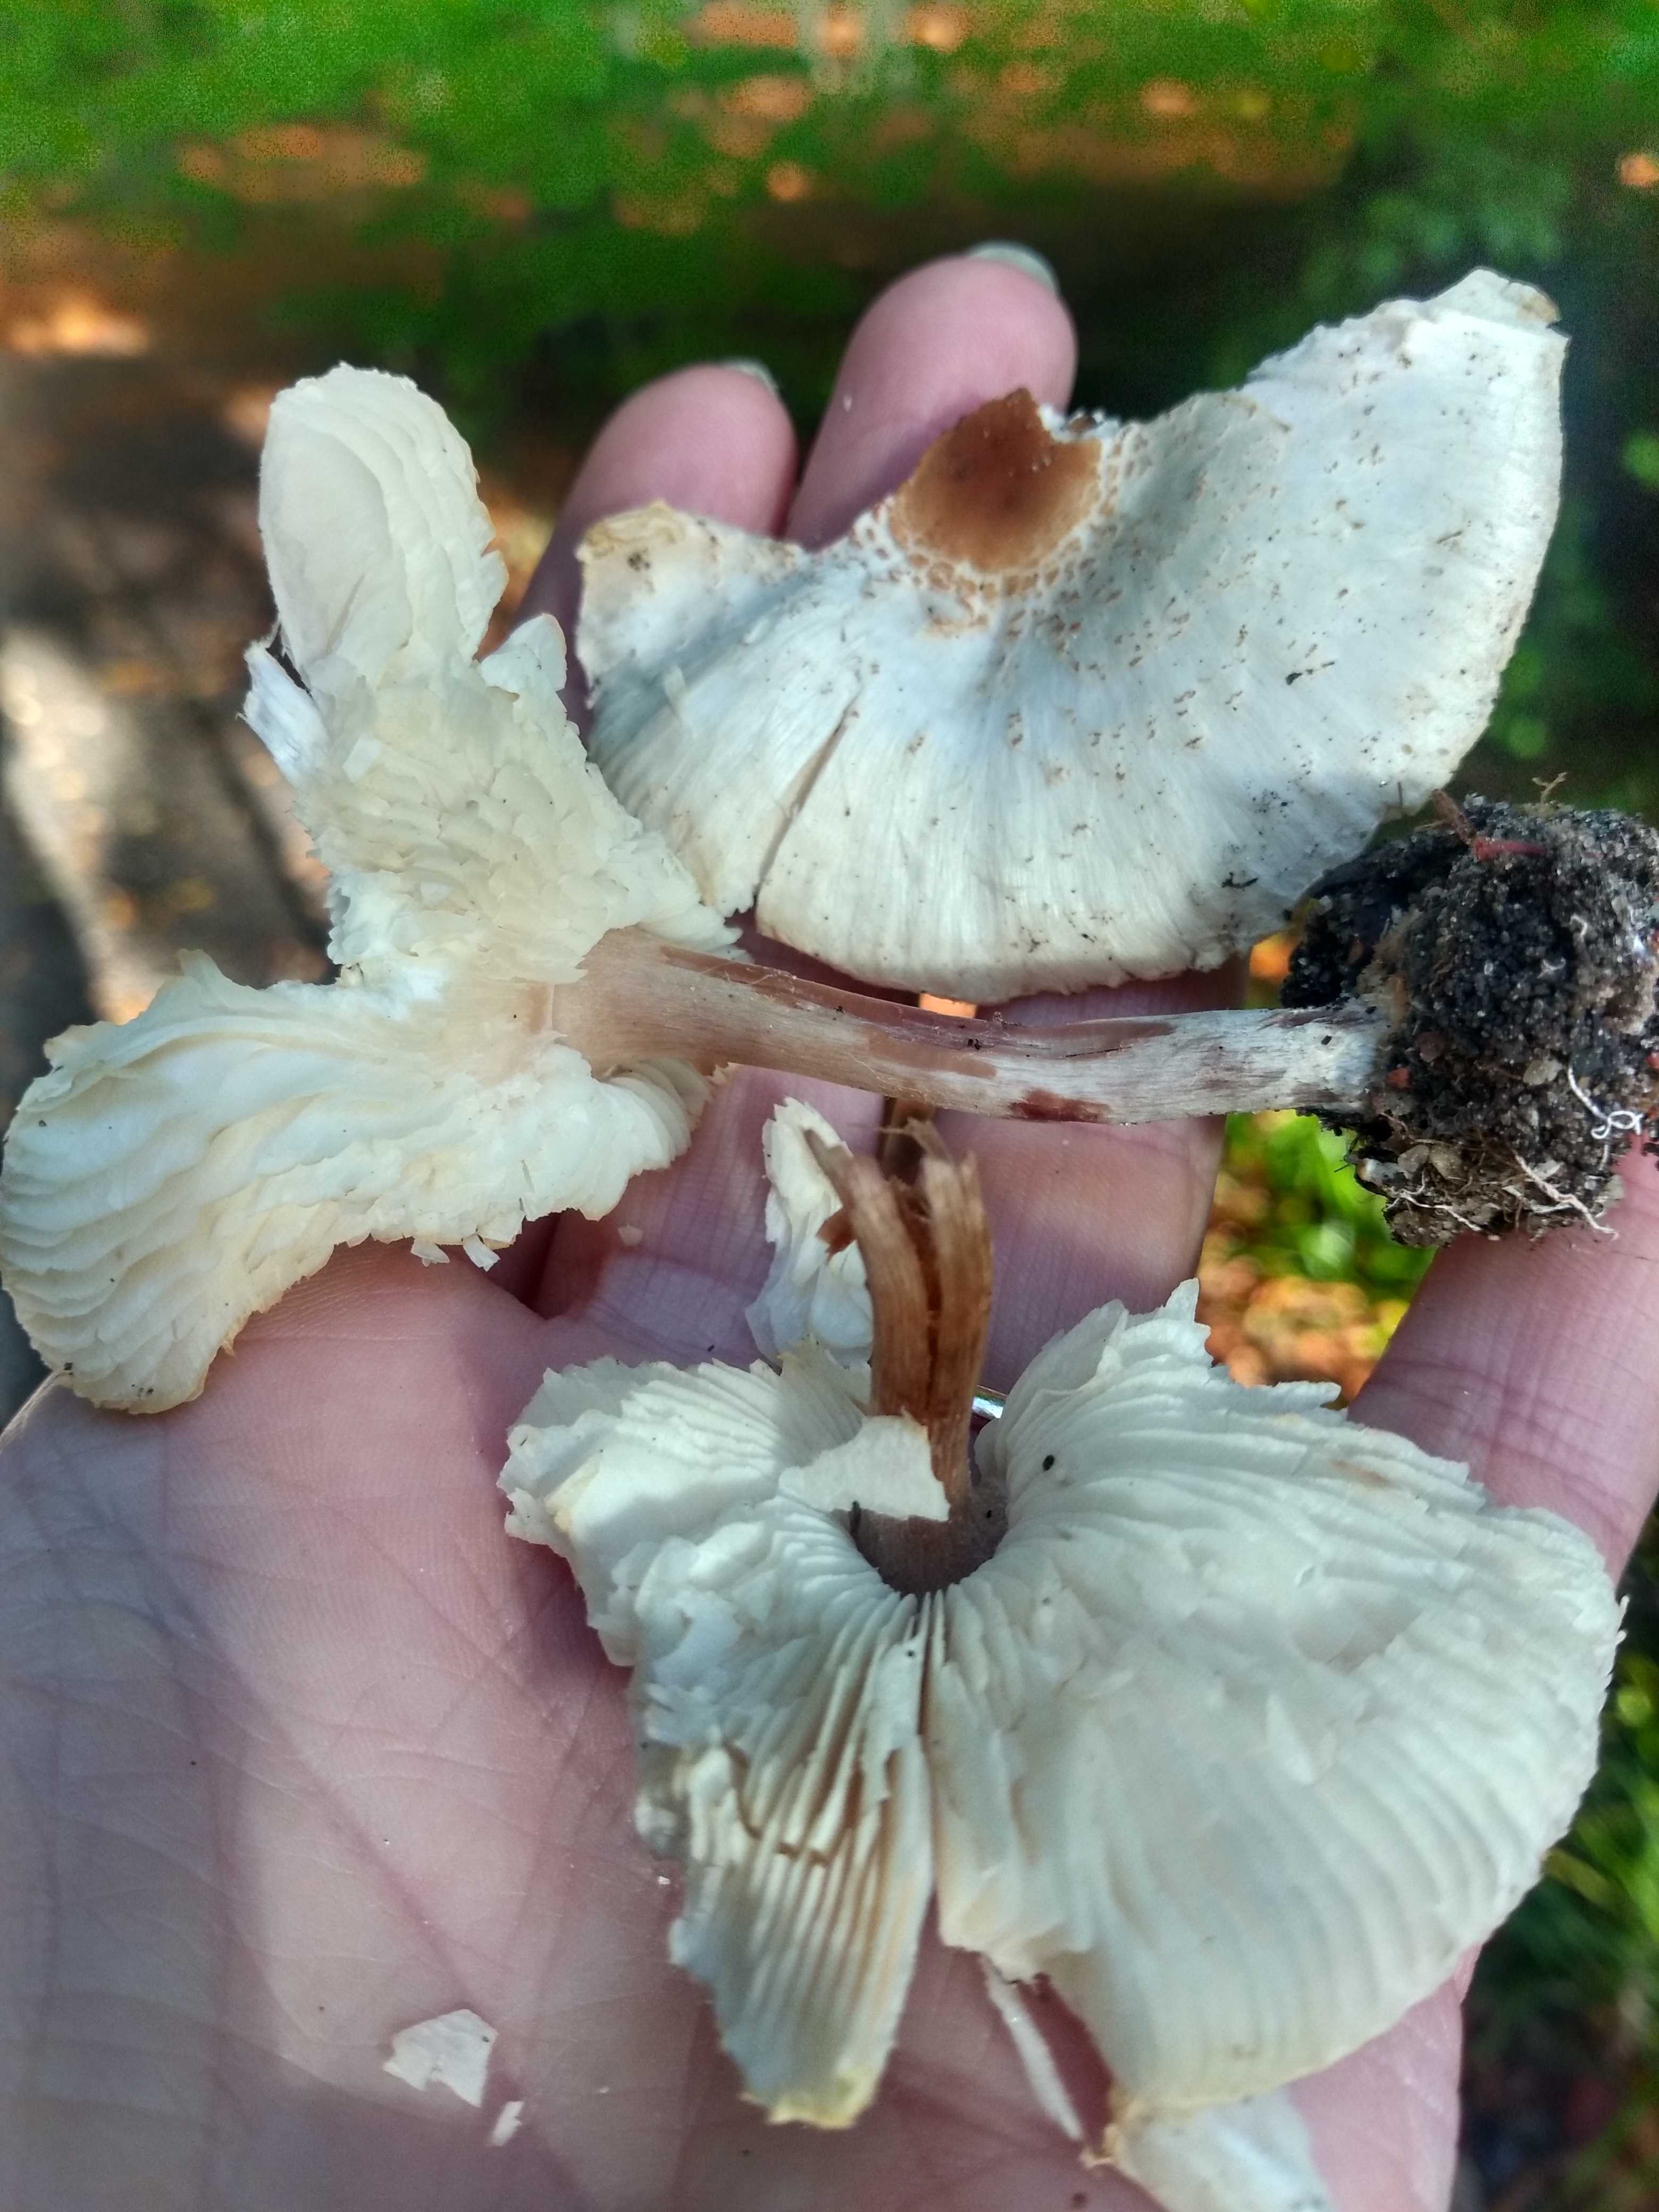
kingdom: Fungi
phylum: Basidiomycota
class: Agaricomycetes
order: Agaricales
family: Agaricaceae
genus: Lepiota
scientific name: Lepiota cristata
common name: stinkende parasolhat
